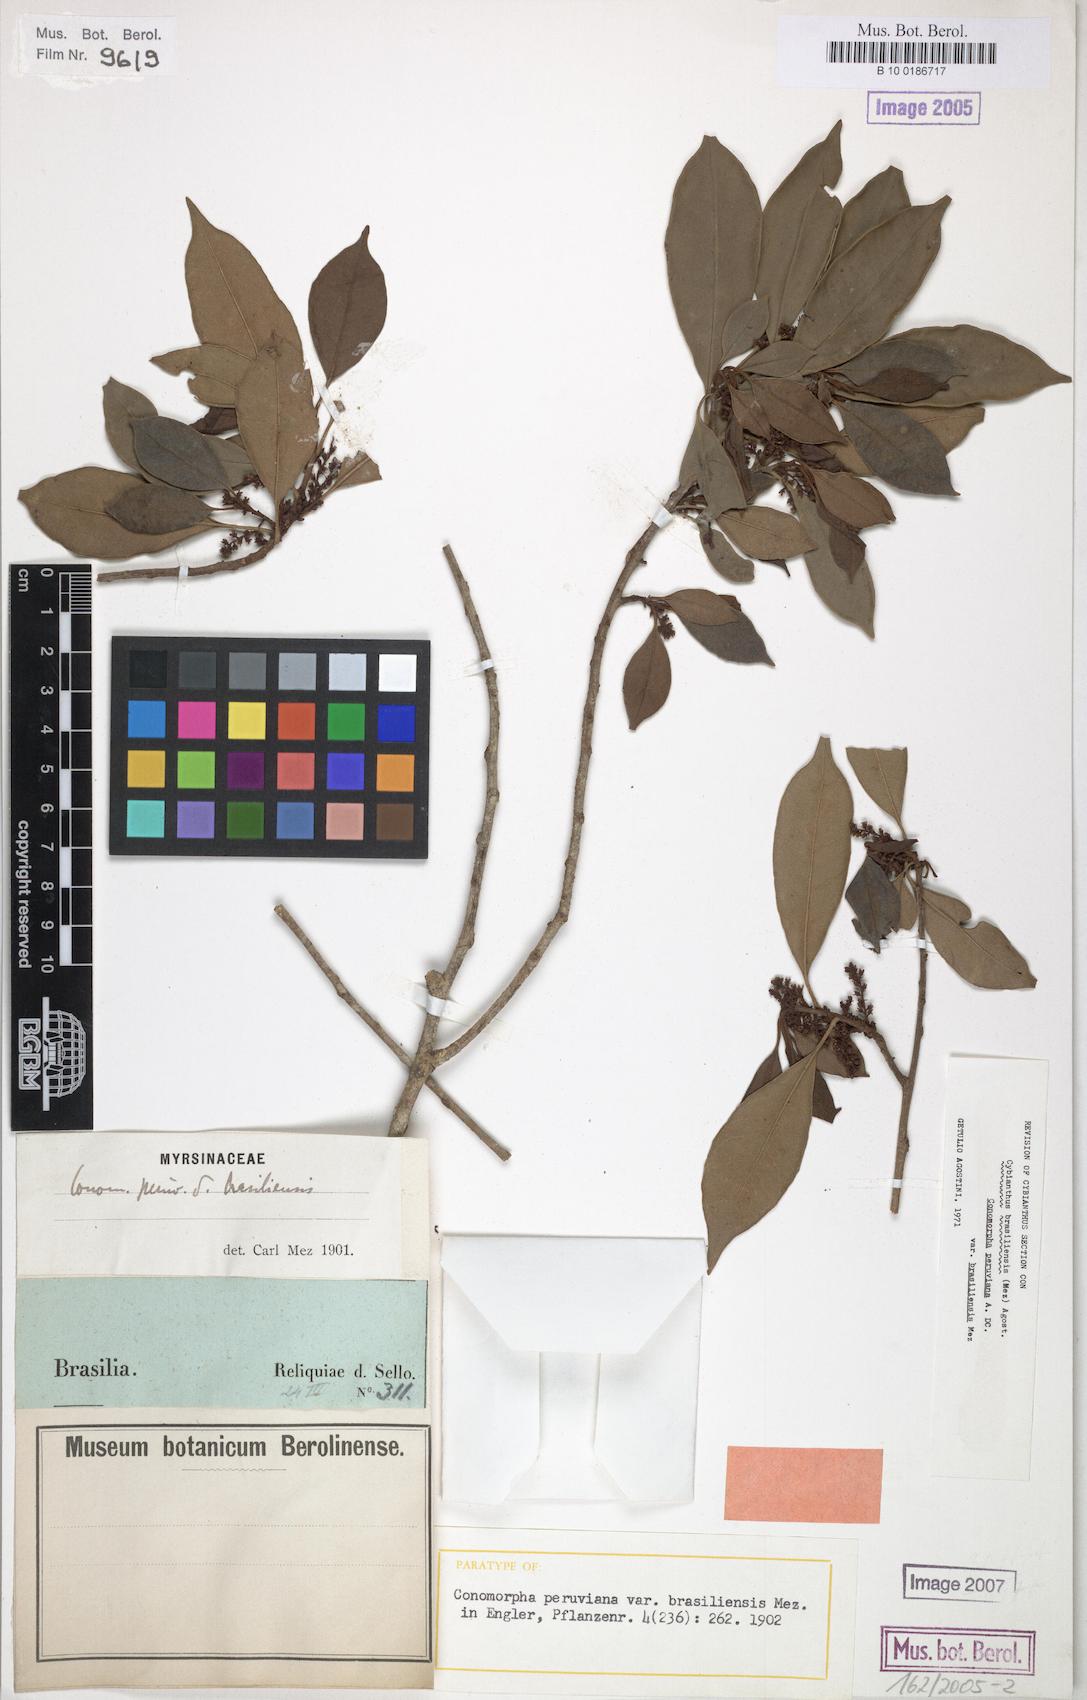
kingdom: Plantae
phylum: Tracheophyta
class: Magnoliopsida
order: Ericales
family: Primulaceae
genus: Cybianthus
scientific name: Cybianthus peruvianus
